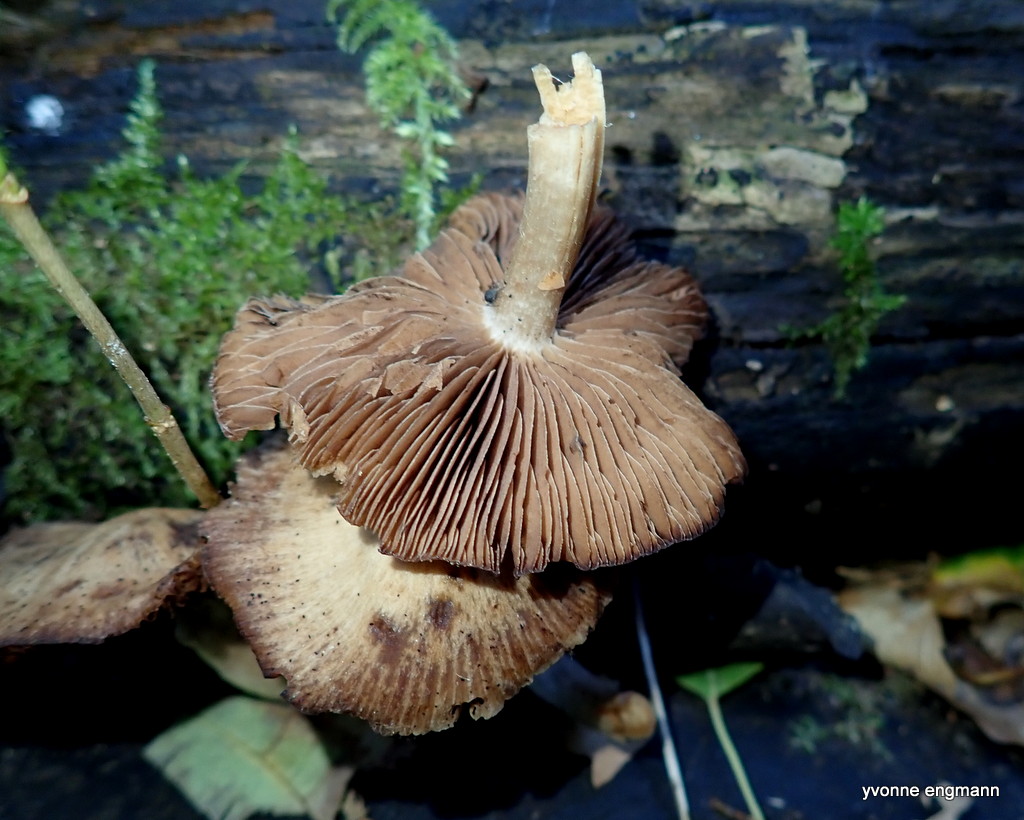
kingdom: Fungi
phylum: Basidiomycota
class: Agaricomycetes
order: Agaricales
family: Psathyrellaceae
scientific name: Psathyrellaceae
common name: mørkhatfamilien
